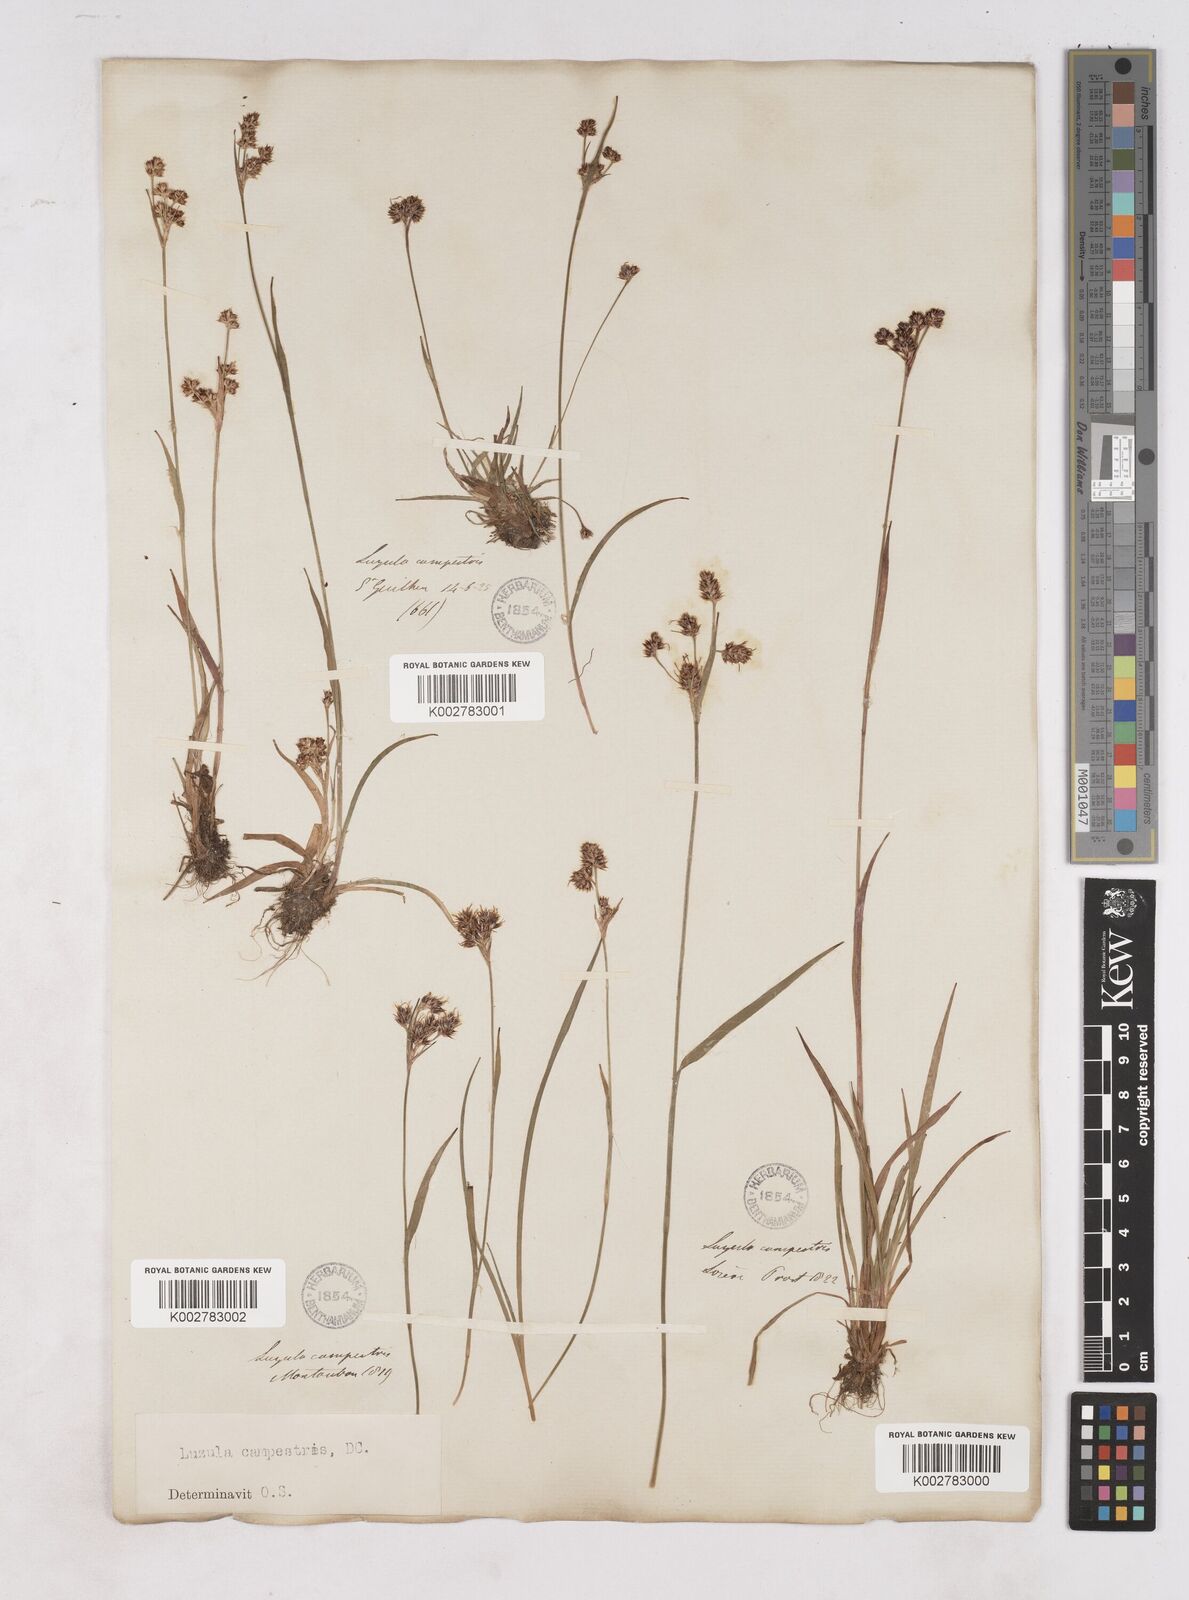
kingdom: Plantae
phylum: Tracheophyta
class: Liliopsida
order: Poales
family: Juncaceae
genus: Luzula
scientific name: Luzula campestris
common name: Field wood-rush
